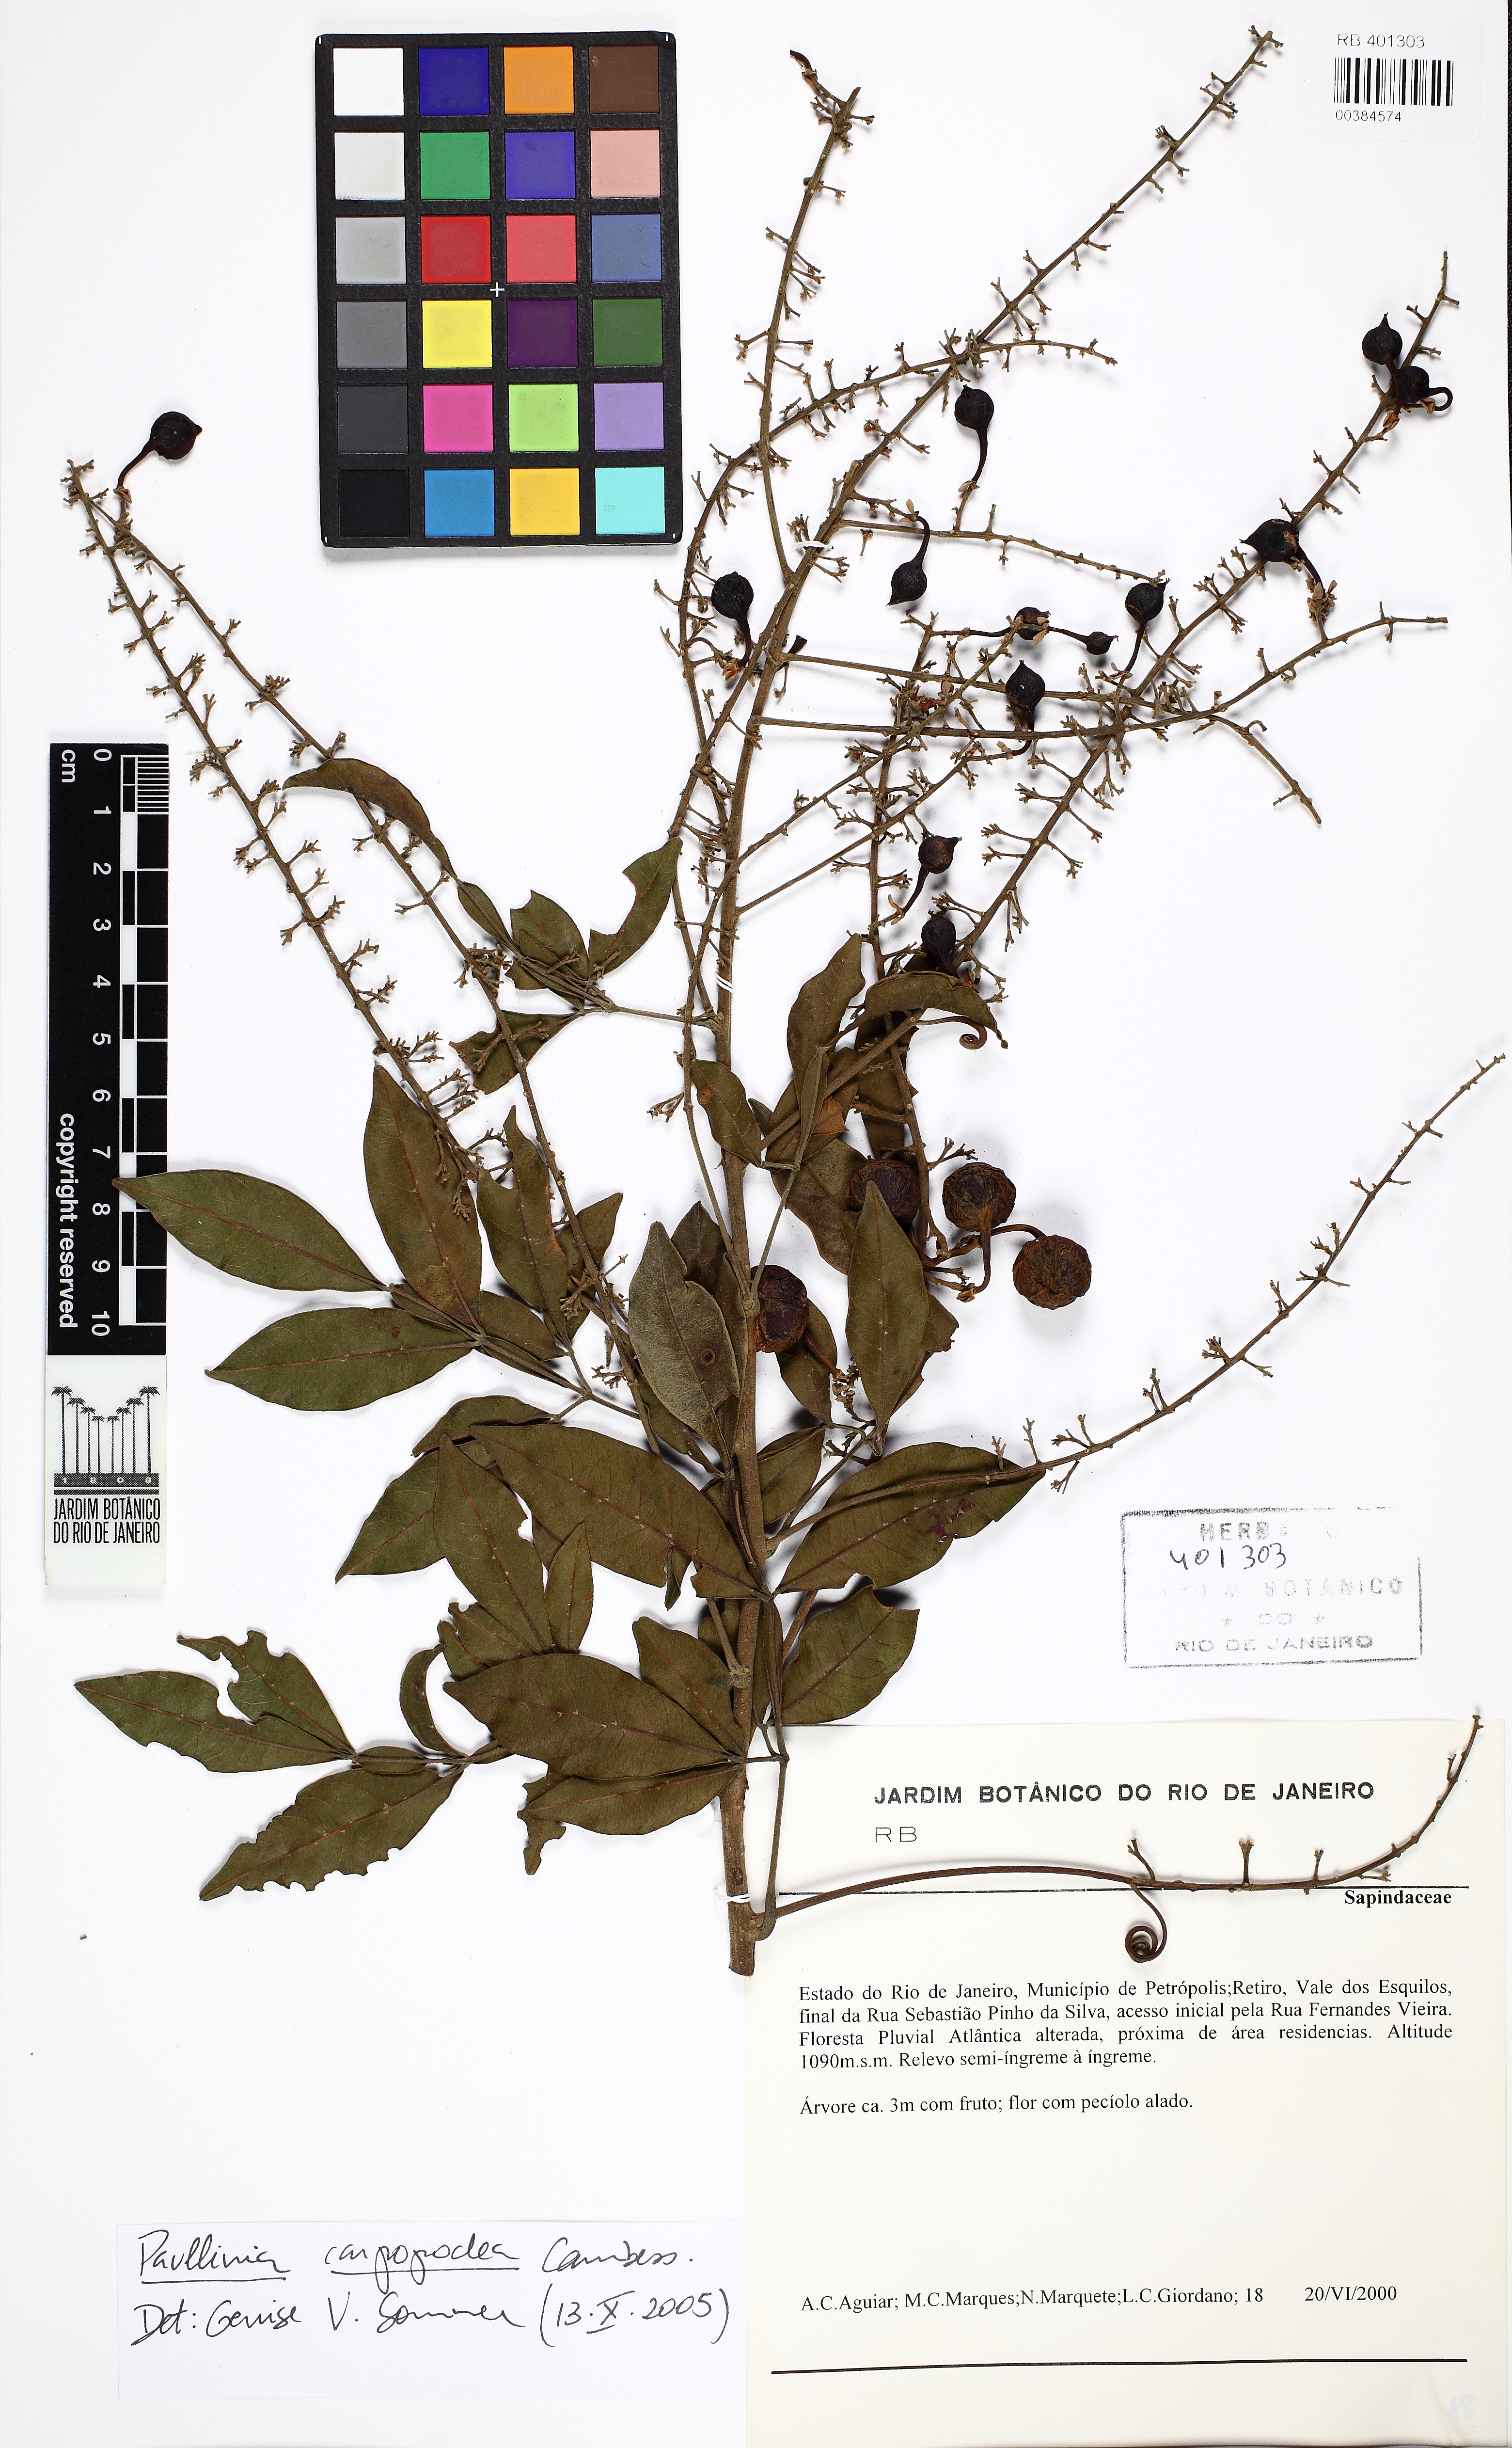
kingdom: Plantae
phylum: Tracheophyta
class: Magnoliopsida
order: Sapindales
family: Sapindaceae
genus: Paullinia
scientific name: Paullinia carpopodea
